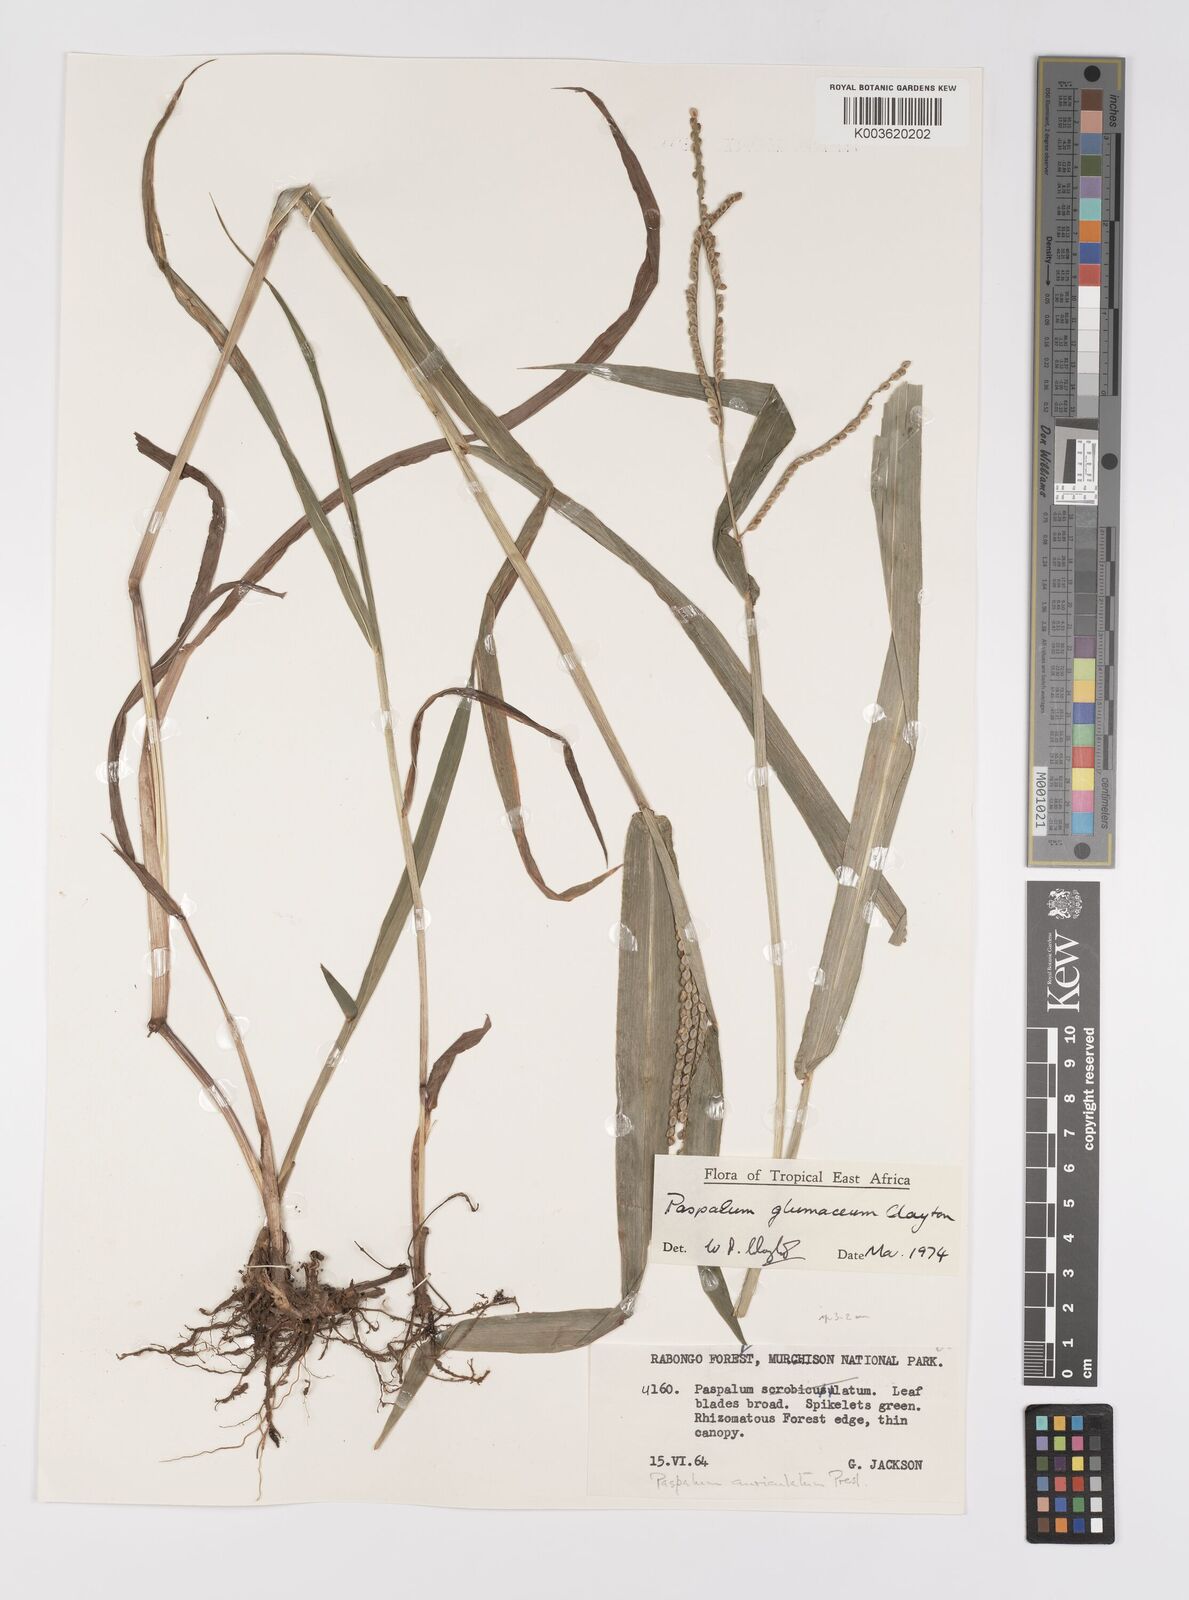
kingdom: Plantae
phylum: Tracheophyta
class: Liliopsida
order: Poales
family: Poaceae
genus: Paspalum
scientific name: Paspalum glumaceum
